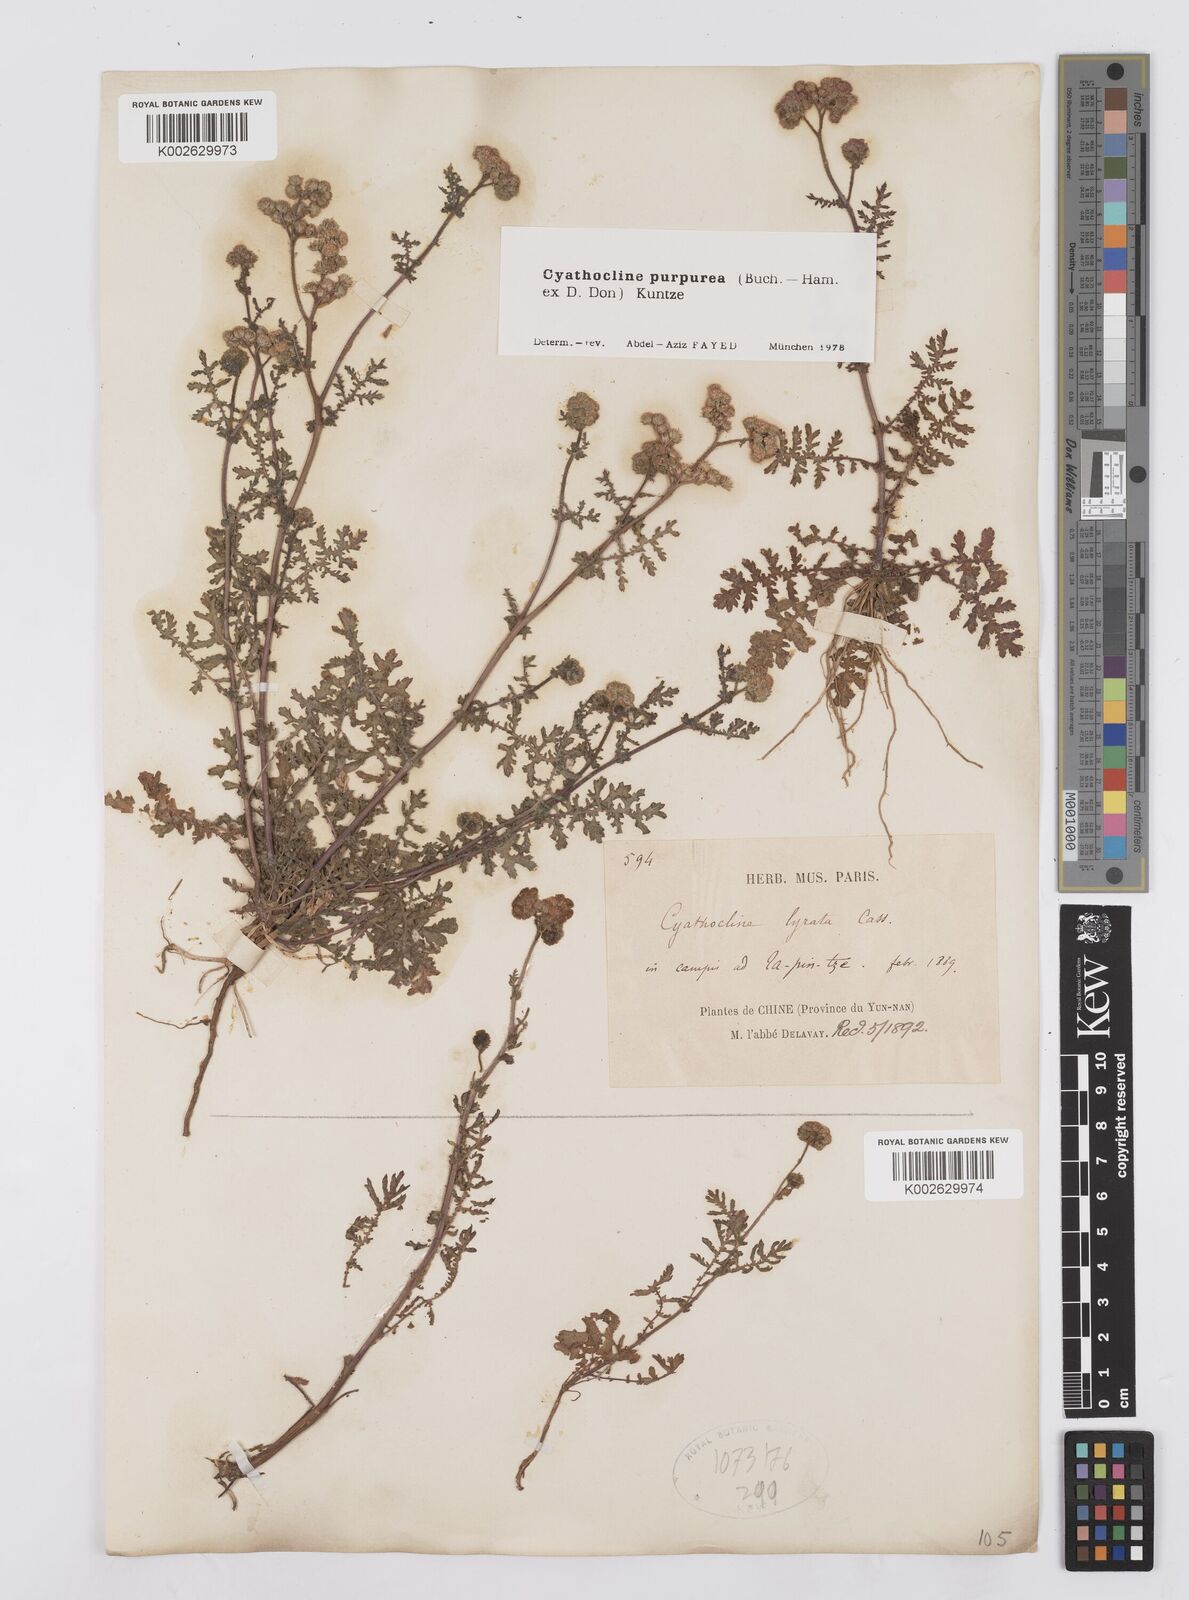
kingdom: Plantae
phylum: Tracheophyta
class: Magnoliopsida
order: Asterales
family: Asteraceae
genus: Cyathocline
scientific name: Cyathocline purpurea
